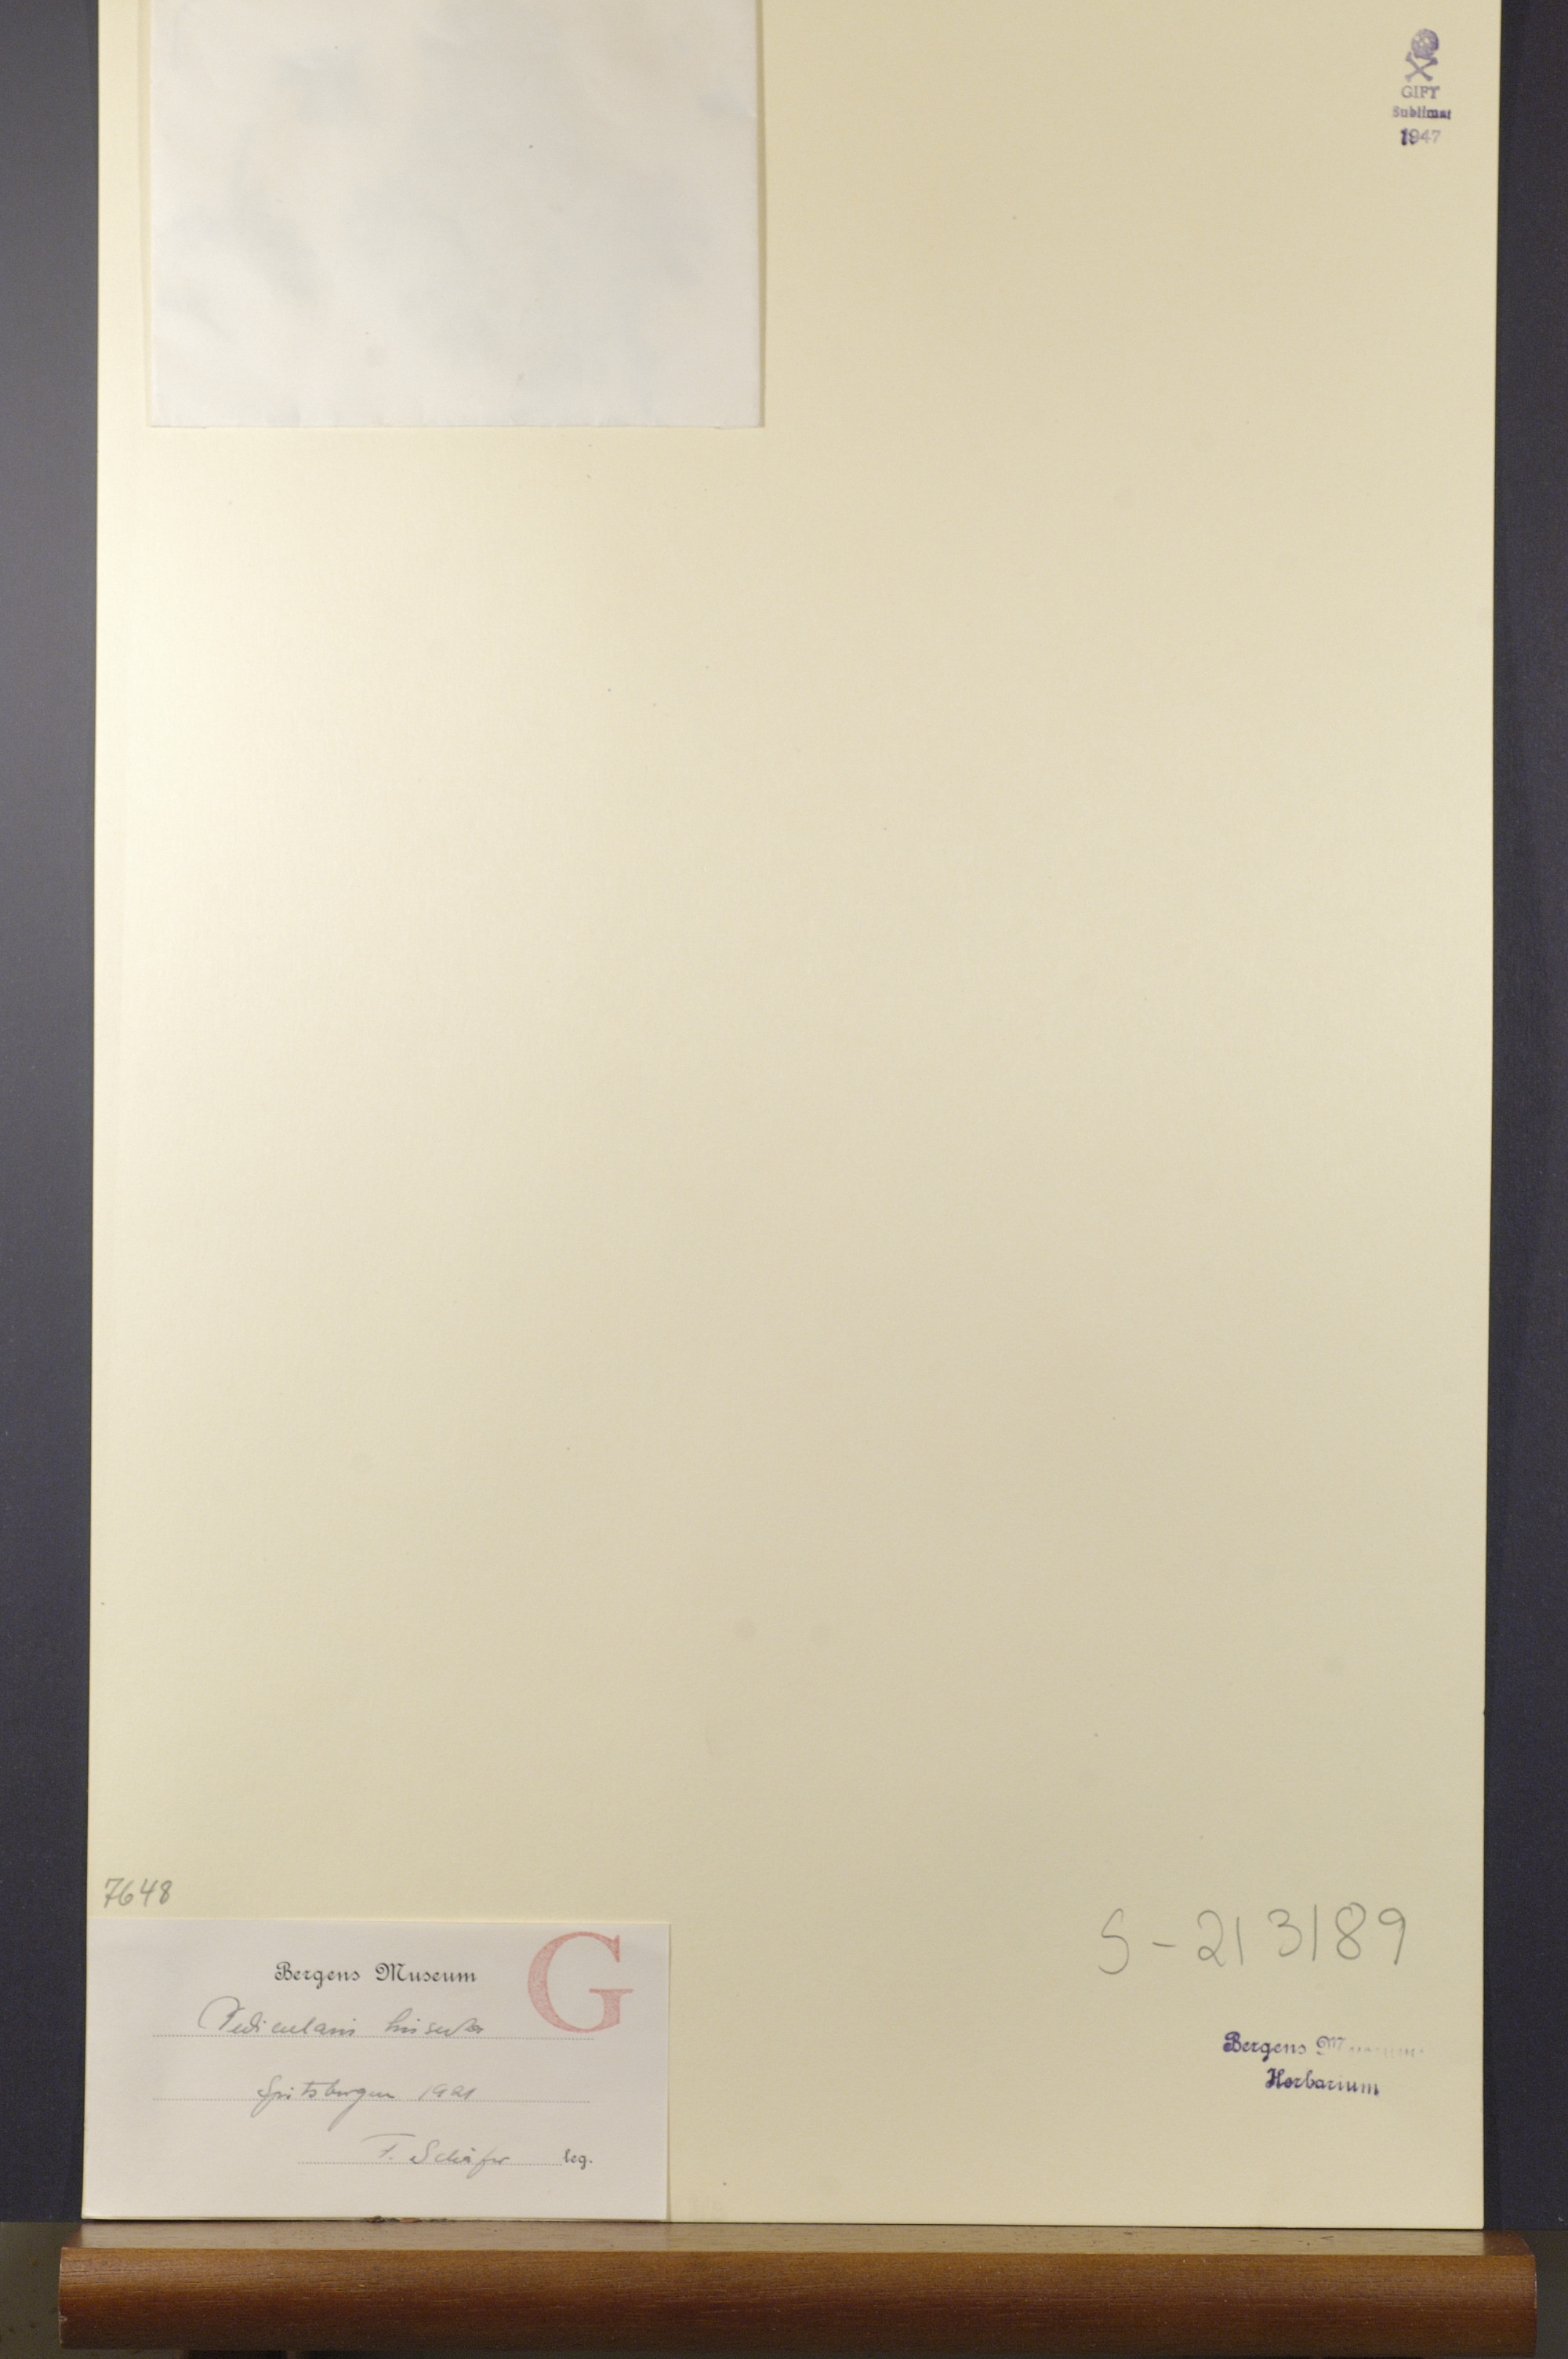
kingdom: Plantae
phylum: Tracheophyta
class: Magnoliopsida
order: Lamiales
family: Orobanchaceae
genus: Pedicularis
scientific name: Pedicularis hirsuta
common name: Hairy lousewort
